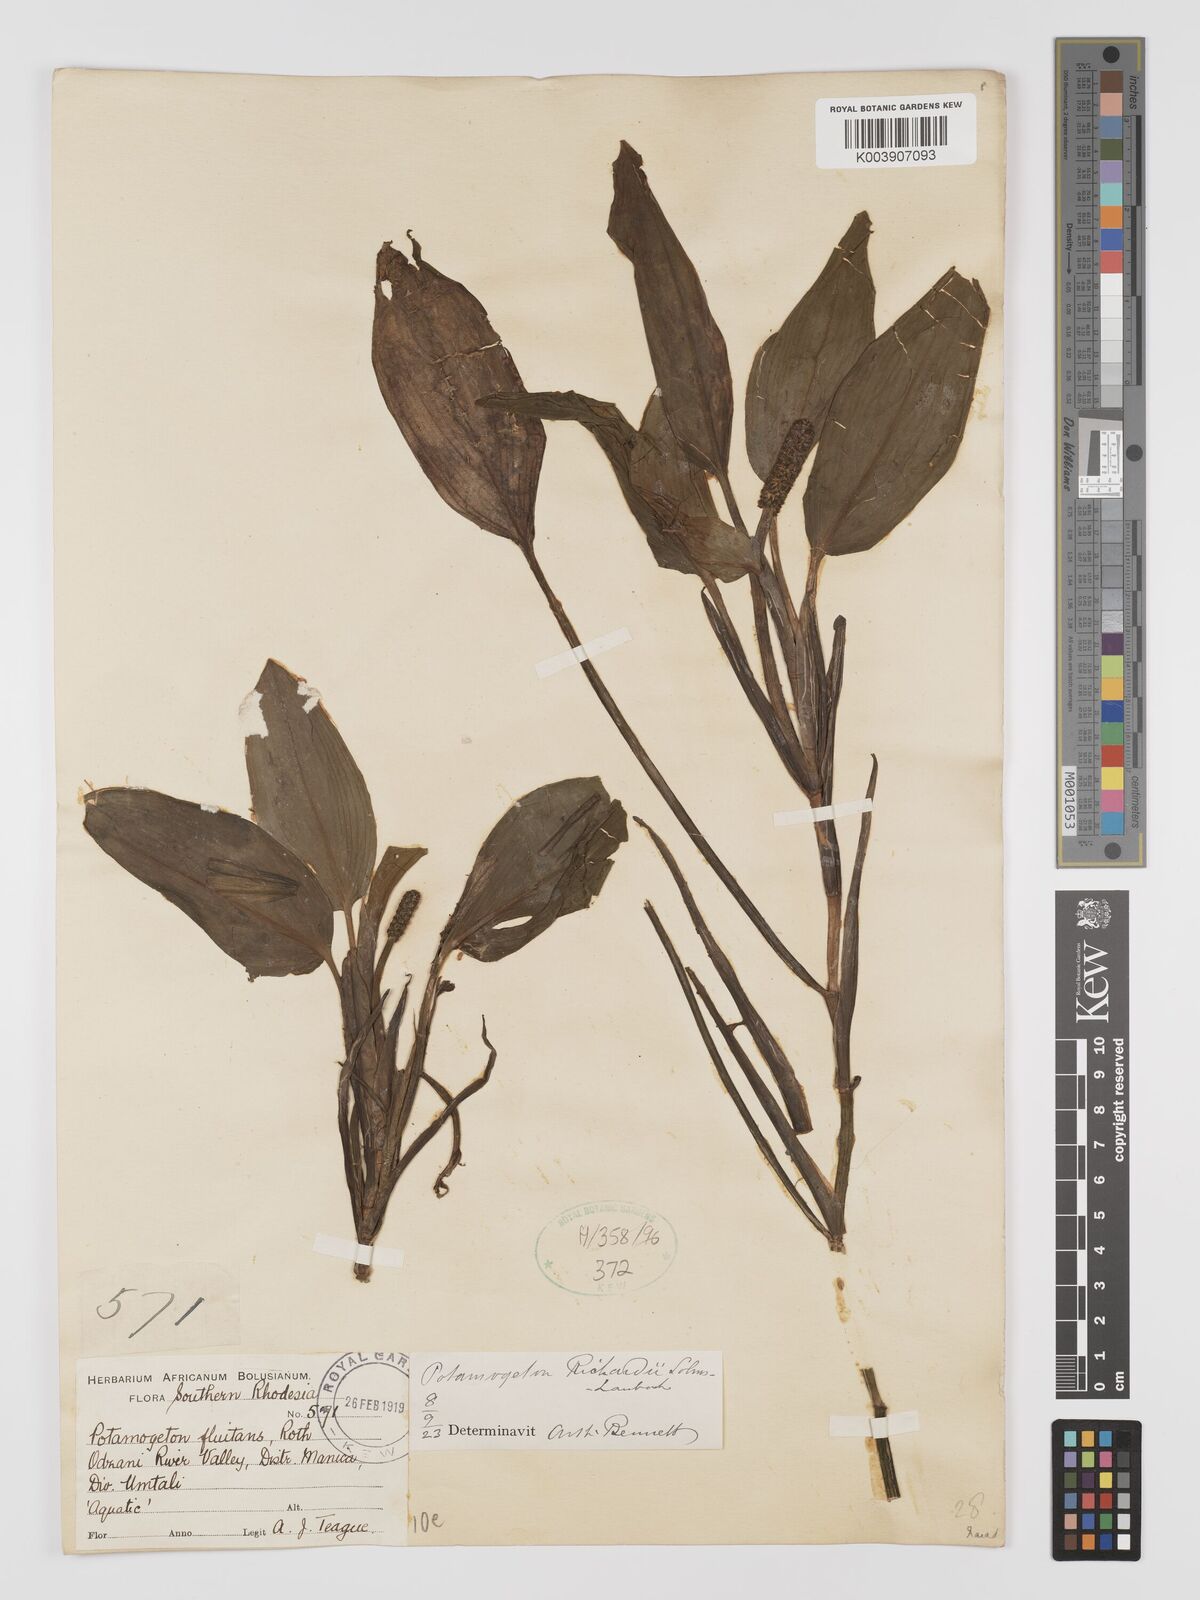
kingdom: Plantae
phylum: Tracheophyta
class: Liliopsida
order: Alismatales
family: Potamogetonaceae
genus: Potamogeton
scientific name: Potamogeton nodosus
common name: Loddon pondweed
